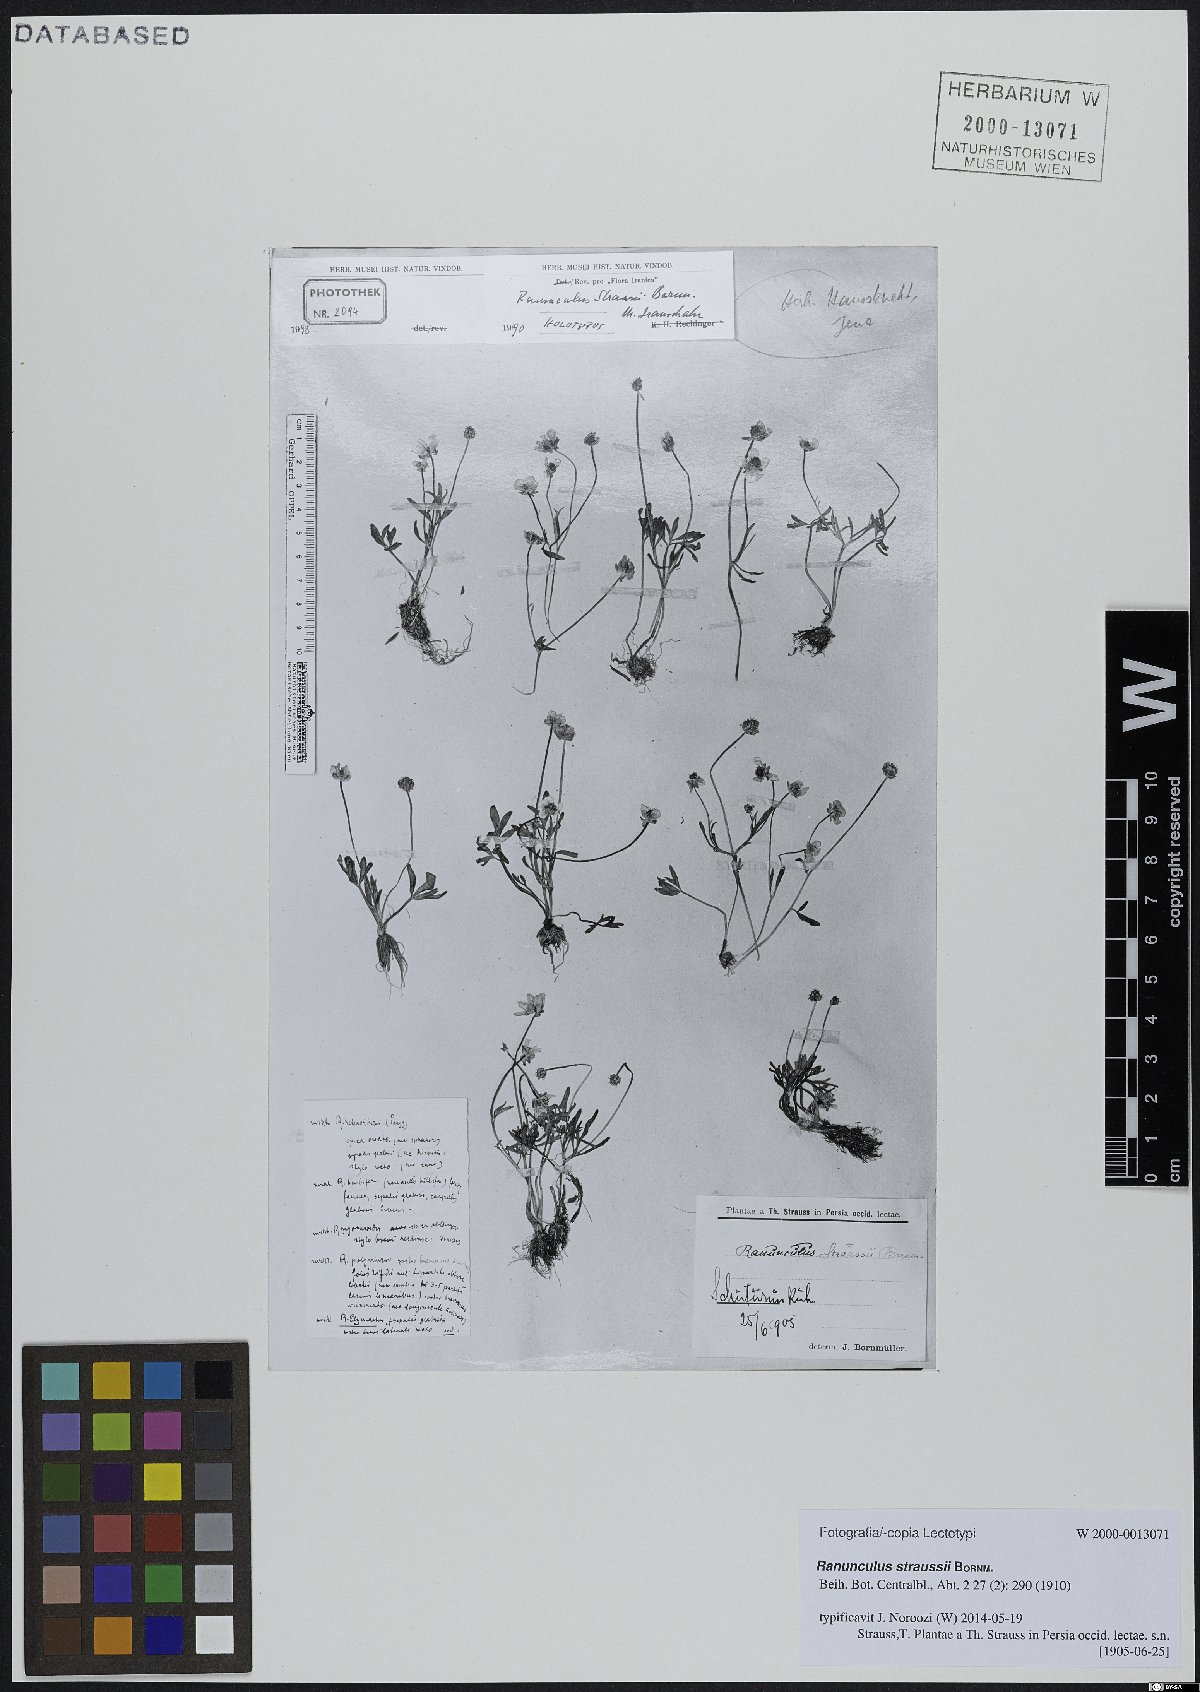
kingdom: Plantae
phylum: Tracheophyta
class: Magnoliopsida
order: Ranunculales
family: Ranunculaceae
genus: Ranunculus
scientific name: Ranunculus straussii
